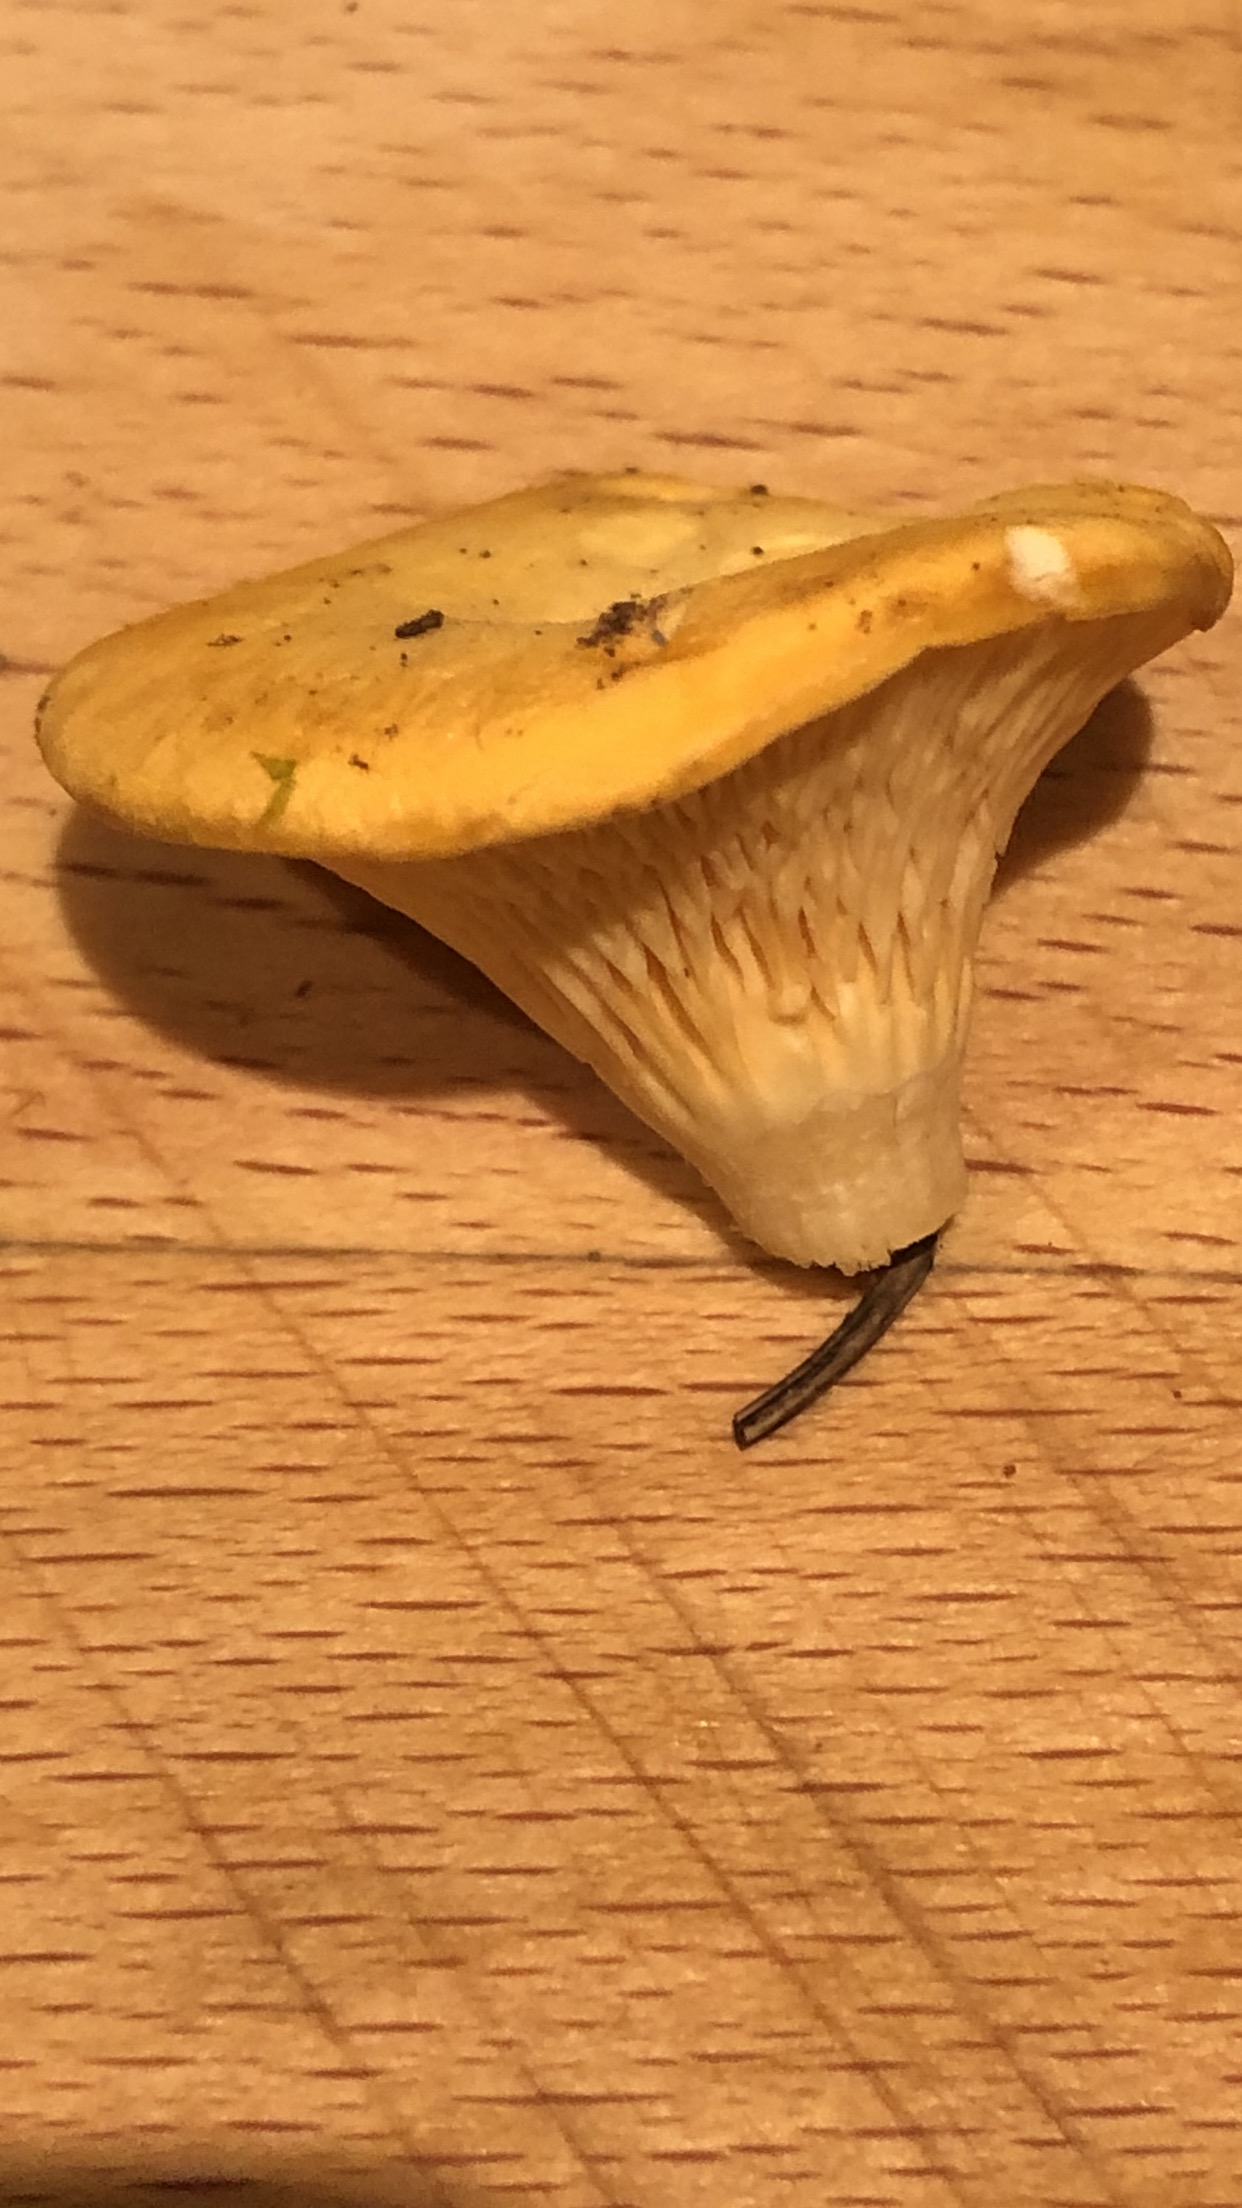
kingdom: Fungi
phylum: Basidiomycota
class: Agaricomycetes
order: Boletales
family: Hygrophoropsidaceae
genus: Hygrophoropsis
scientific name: Hygrophoropsis aurantiaca
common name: almindelig orangekantarel
